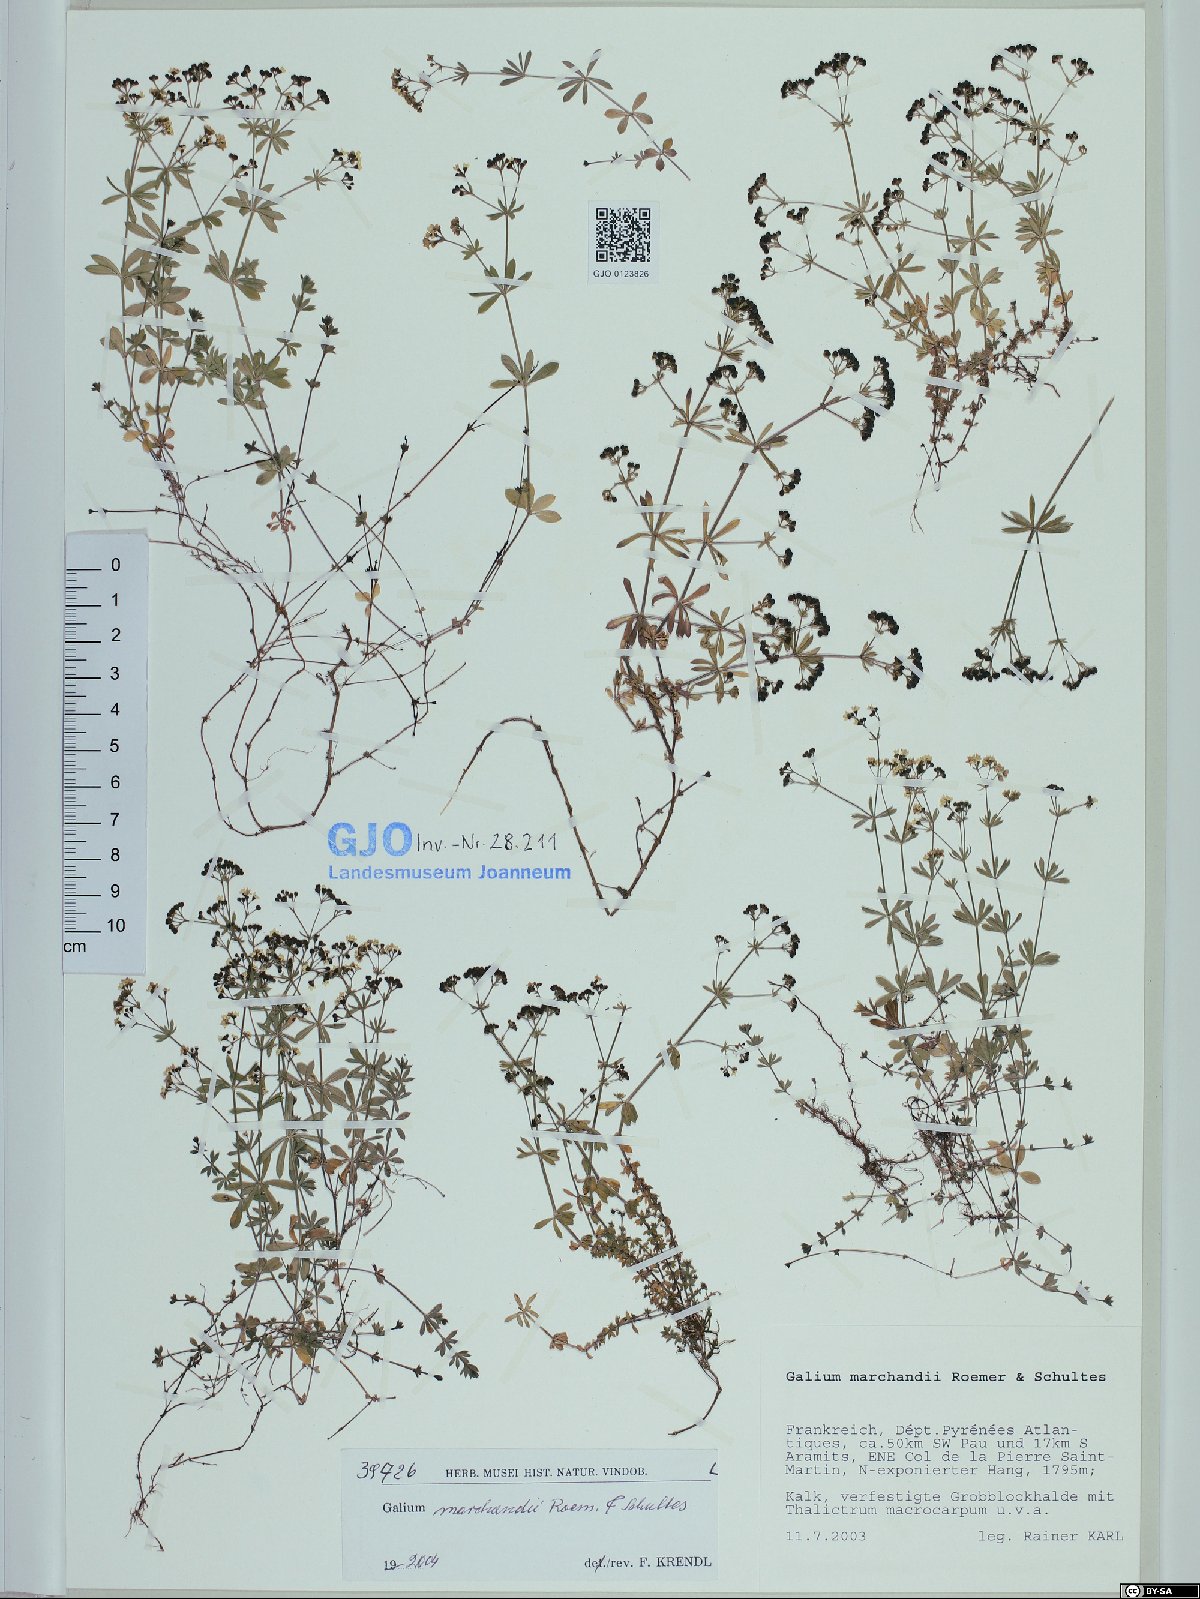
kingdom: Plantae
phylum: Tracheophyta
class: Magnoliopsida
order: Gentianales
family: Rubiaceae
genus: Galium
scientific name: Galium marchandii
